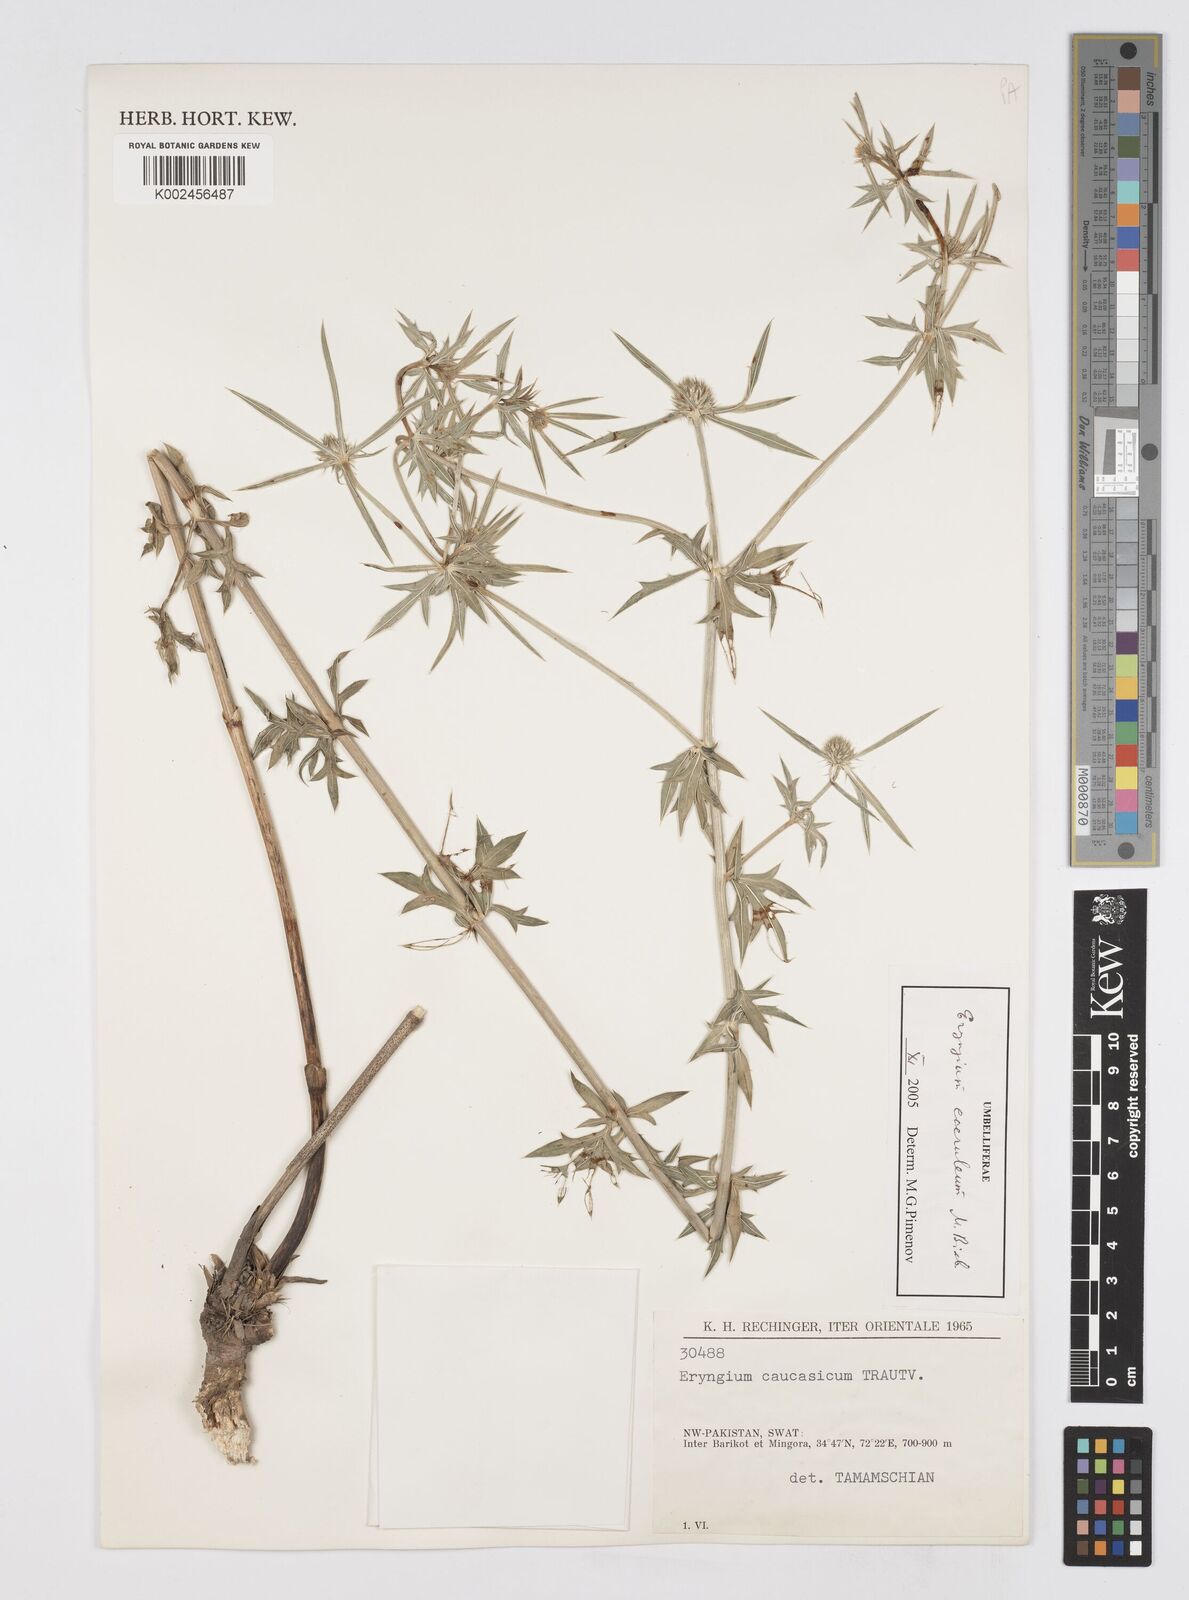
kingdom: Plantae
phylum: Tracheophyta
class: Magnoliopsida
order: Apiales
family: Apiaceae
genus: Eryngium
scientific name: Eryngium caeruleum
